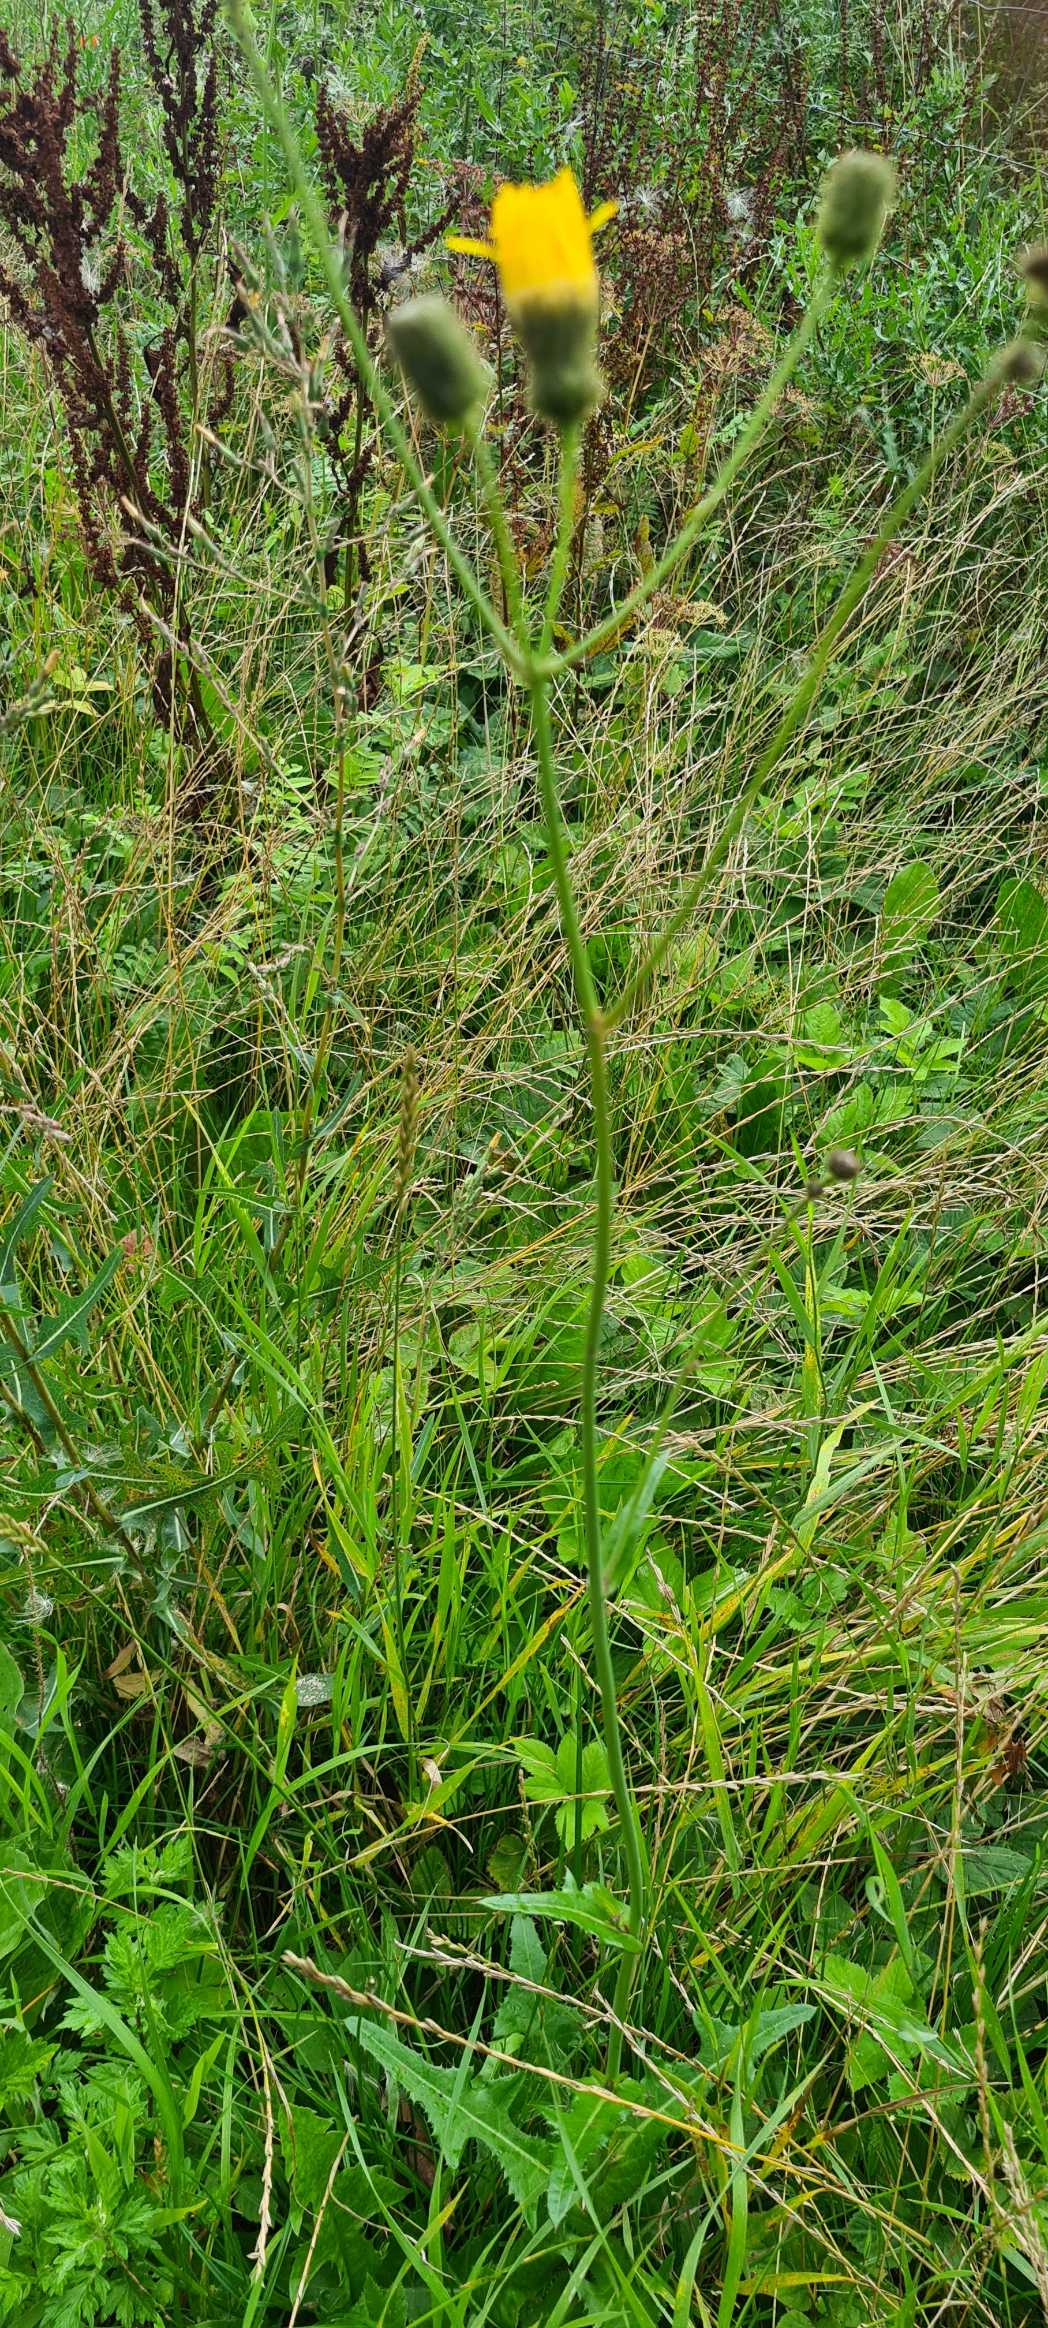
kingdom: Plantae
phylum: Tracheophyta
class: Magnoliopsida
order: Asterales
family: Asteraceae
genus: Sonchus
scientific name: Sonchus arvensis
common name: Ager-svinemælk
